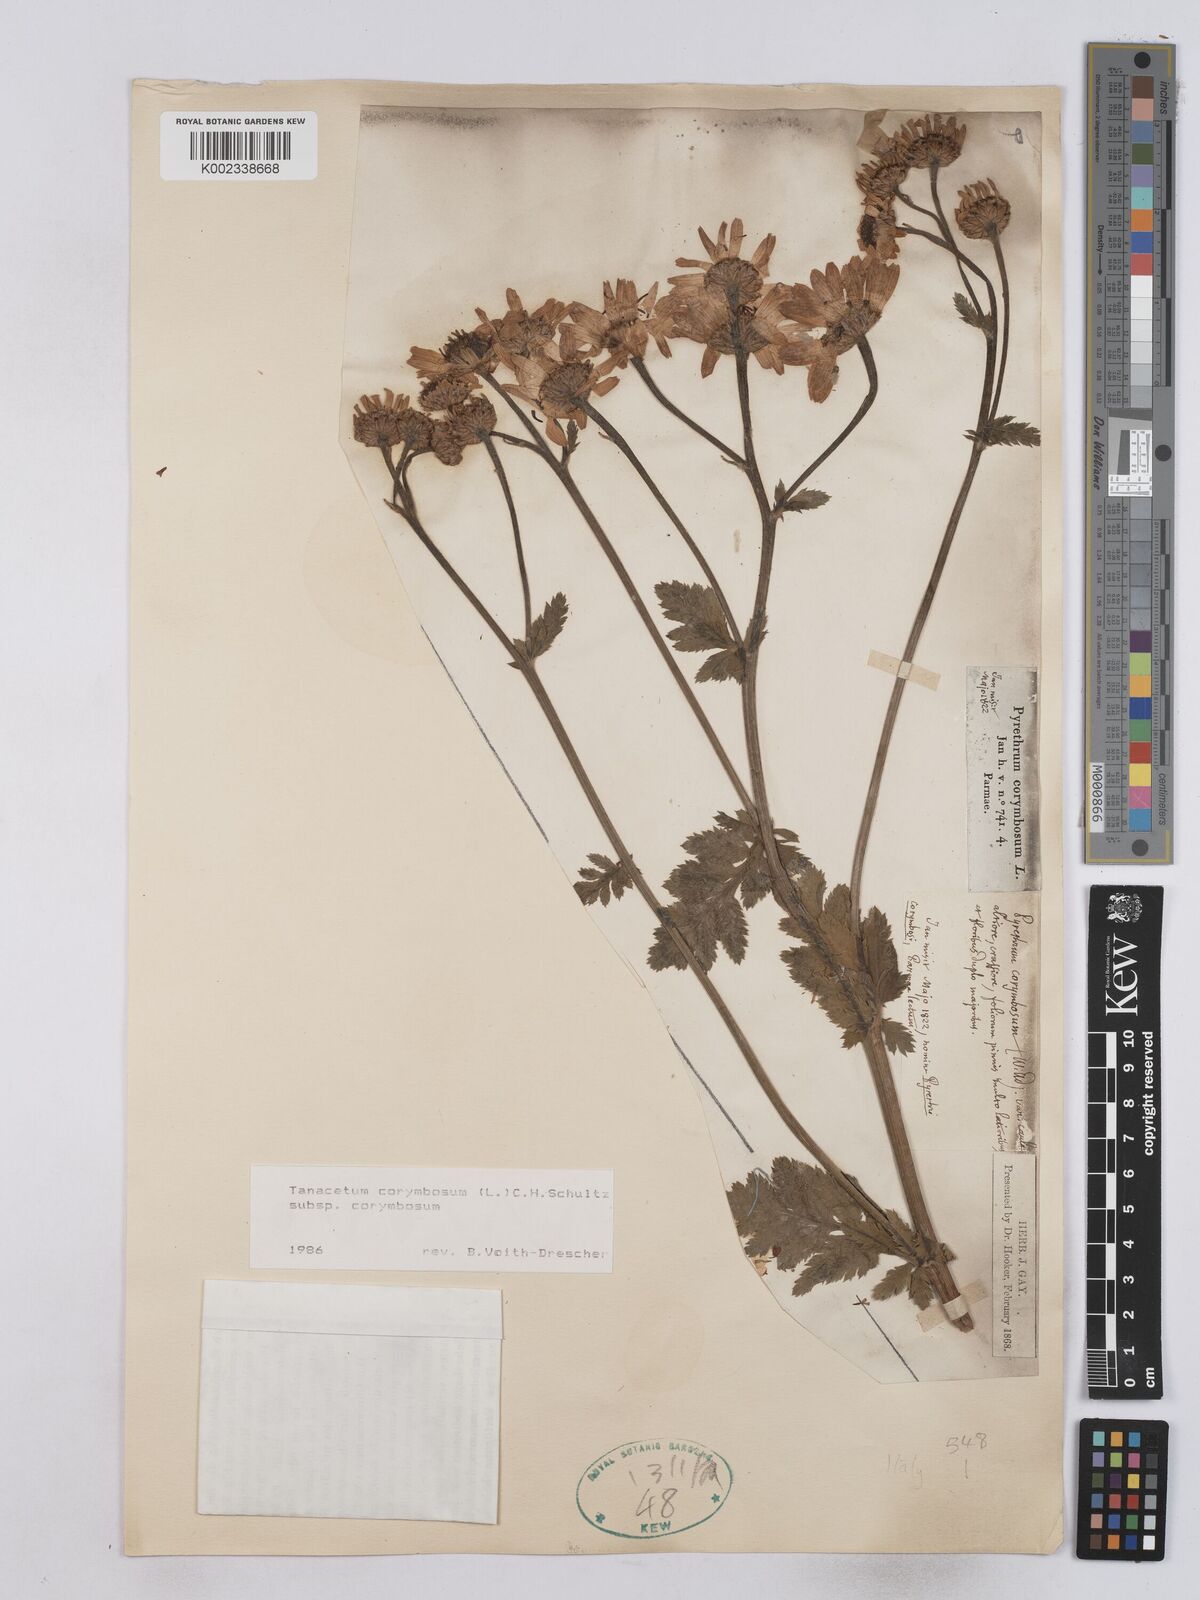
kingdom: Plantae
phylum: Tracheophyta
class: Magnoliopsida
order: Asterales
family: Asteraceae
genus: Tanacetum
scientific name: Tanacetum corymbosum
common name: Scentless feverfew
